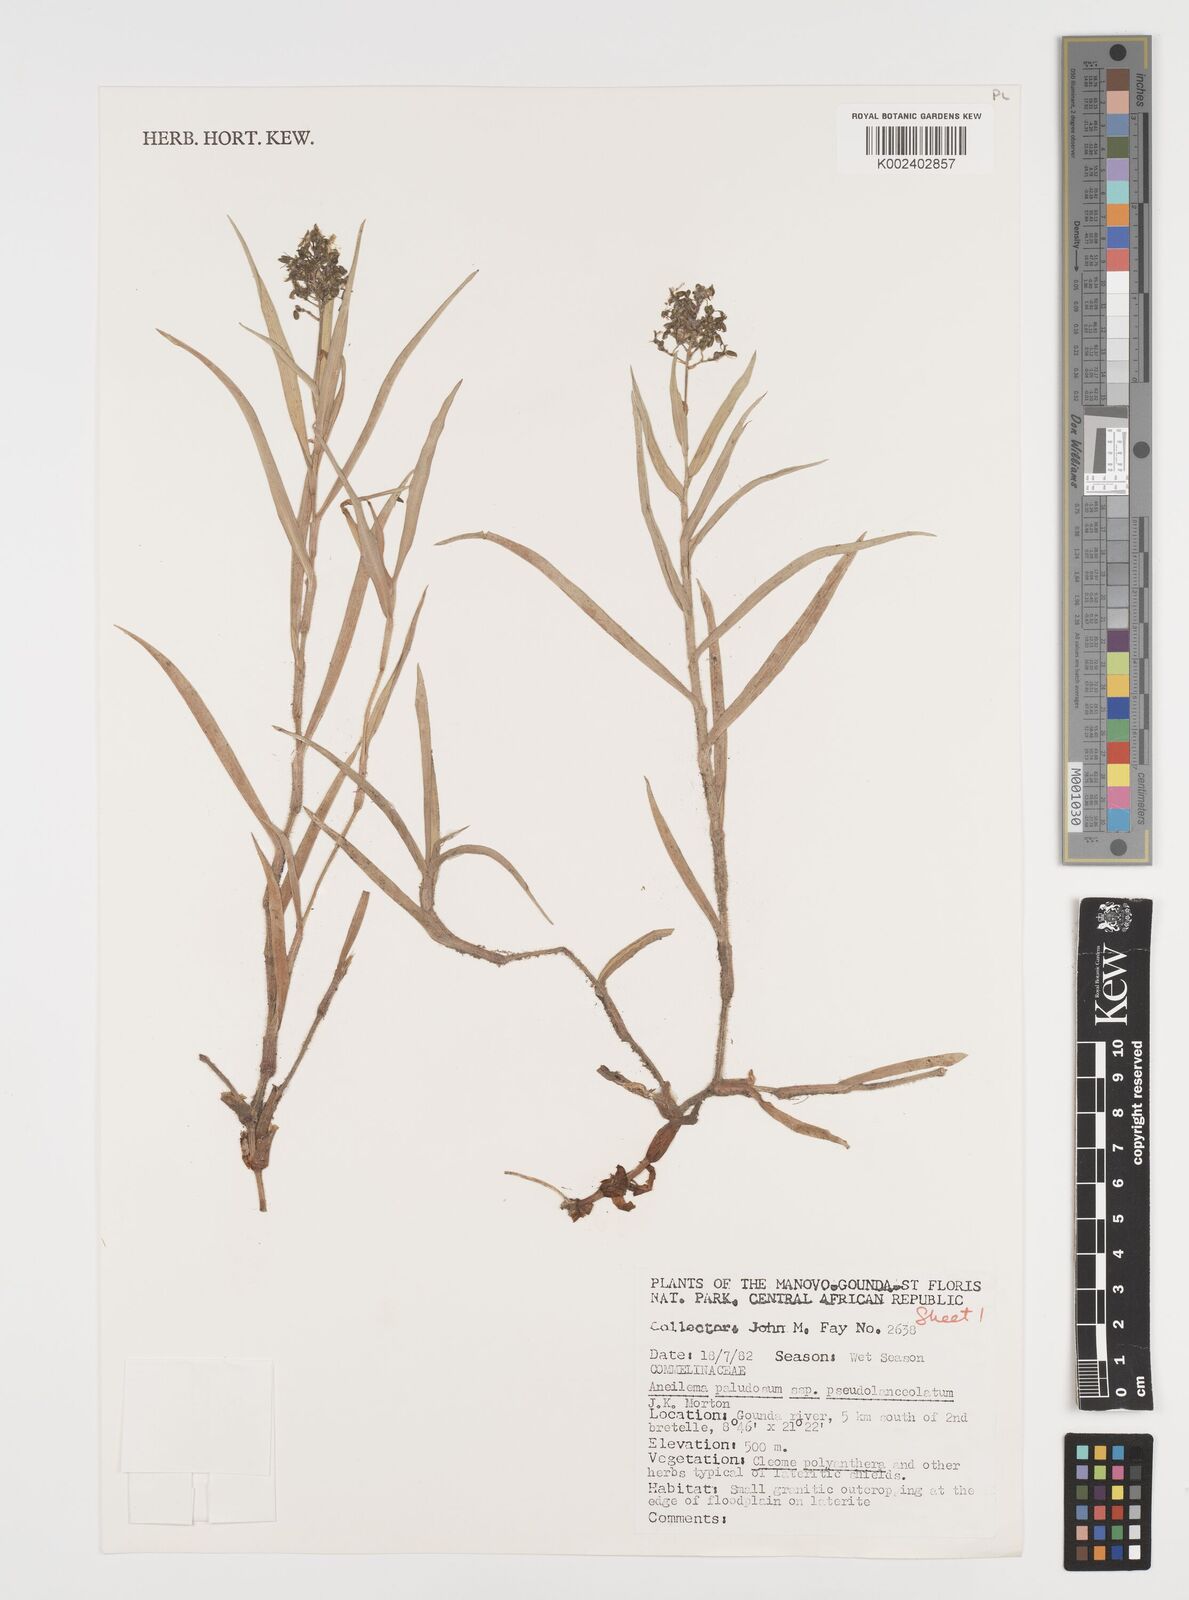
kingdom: Plantae
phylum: Tracheophyta
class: Liliopsida
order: Commelinales
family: Commelinaceae
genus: Aneilema
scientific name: Aneilema paludosum
